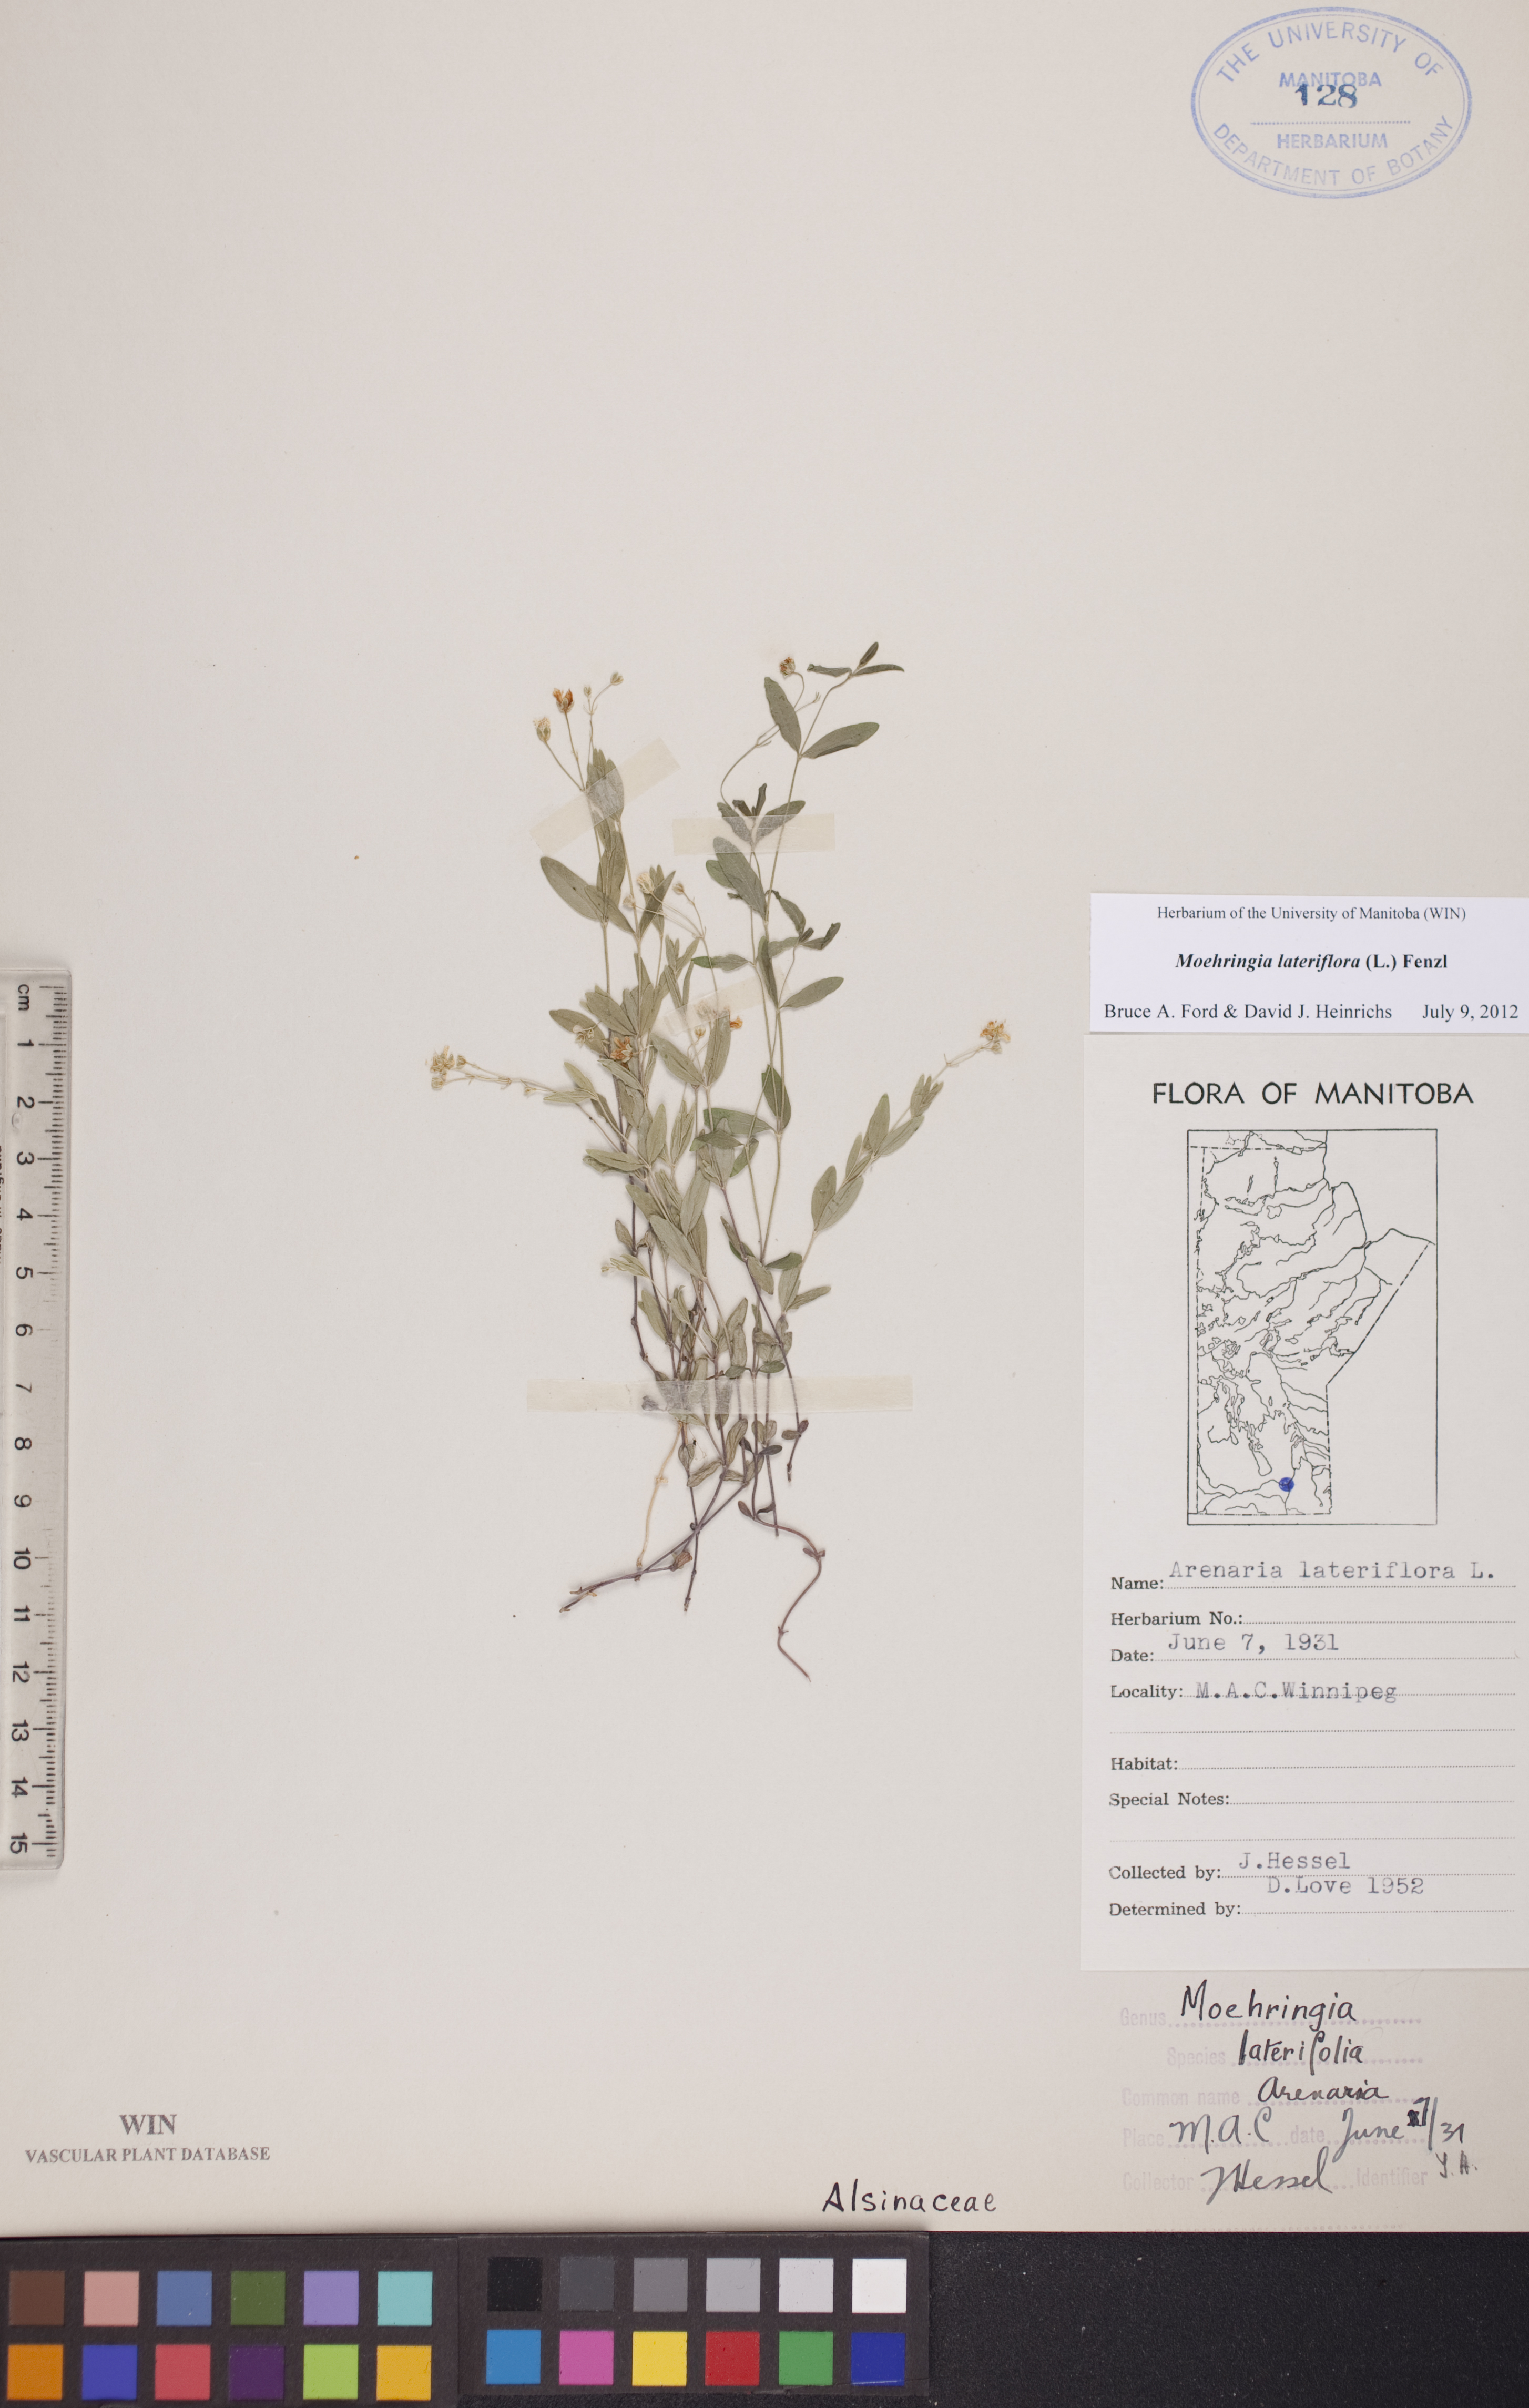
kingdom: Plantae
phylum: Tracheophyta
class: Magnoliopsida
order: Caryophyllales
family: Caryophyllaceae
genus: Moehringia
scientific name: Moehringia lateriflora
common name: Blunt-leaved sandwort
